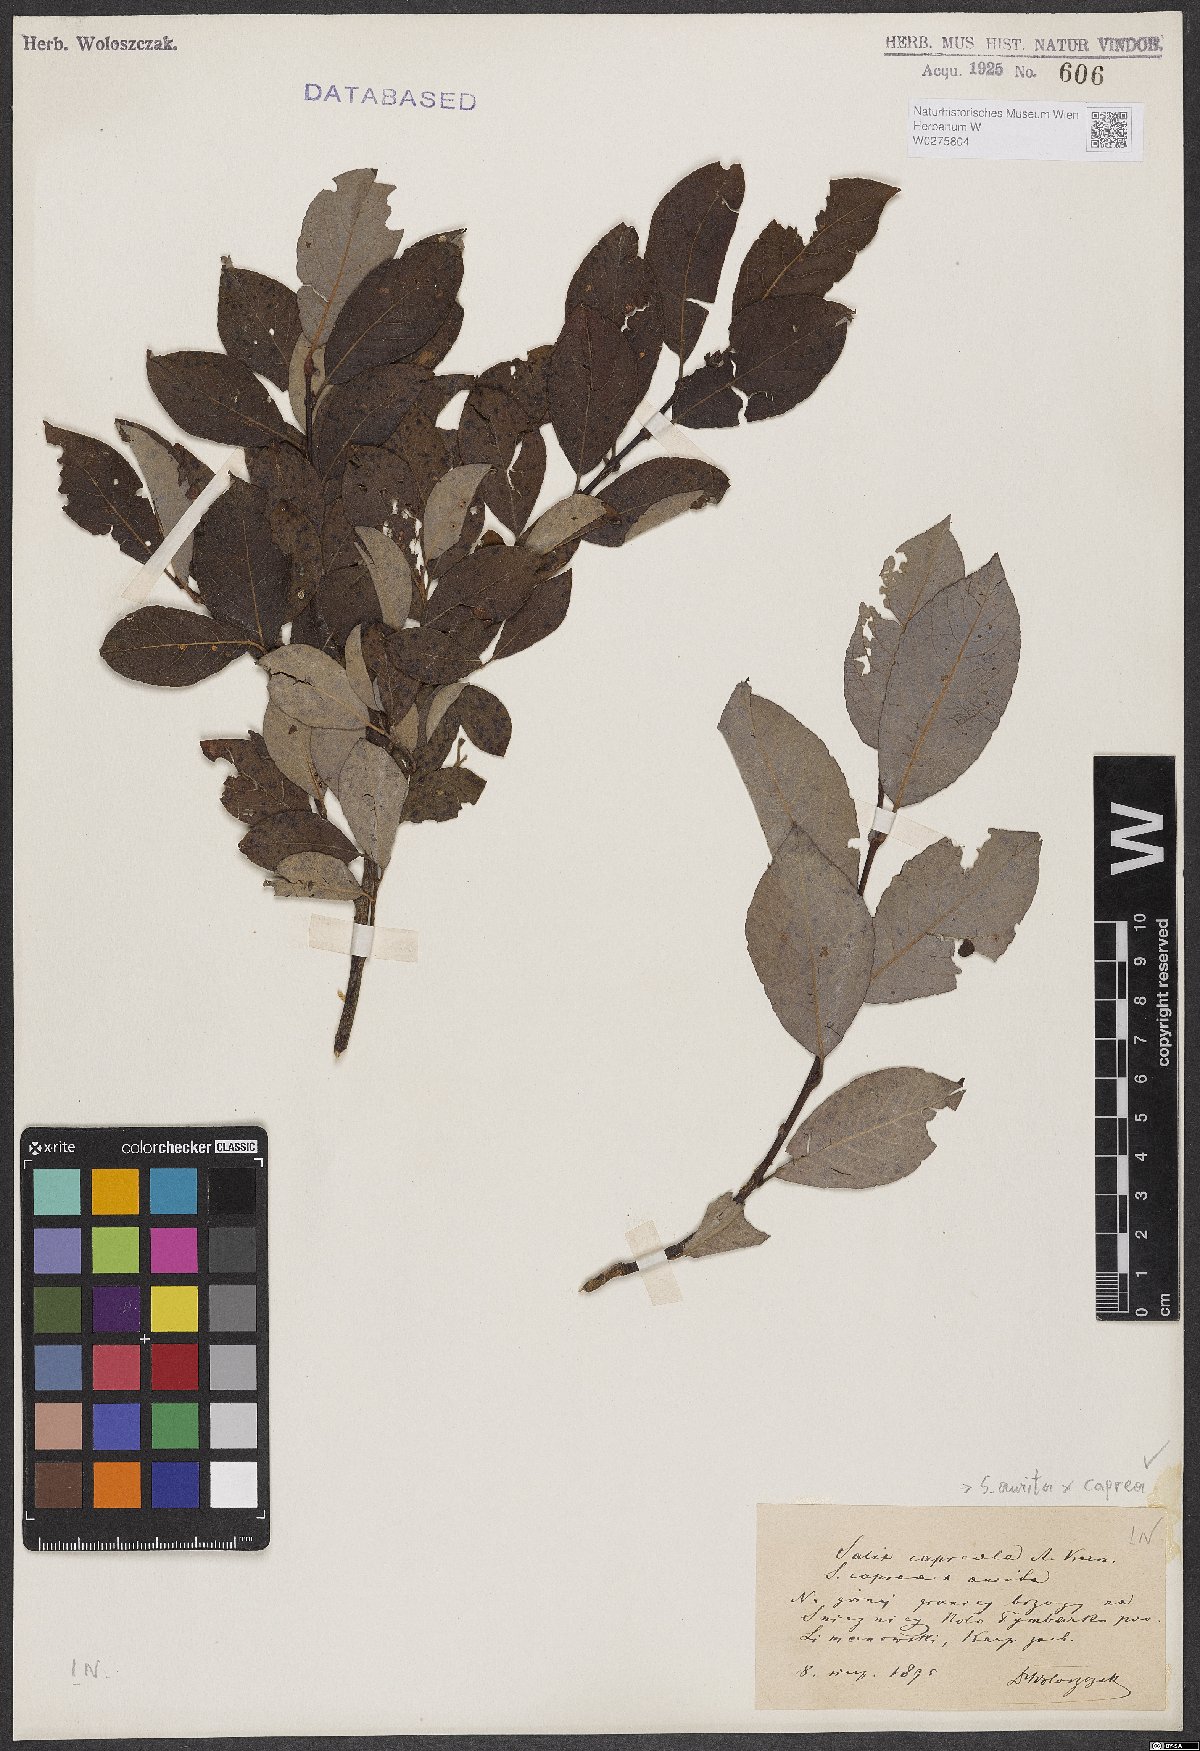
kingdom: Plantae
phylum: Tracheophyta
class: Magnoliopsida
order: Malpighiales
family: Salicaceae
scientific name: Salicaceae
